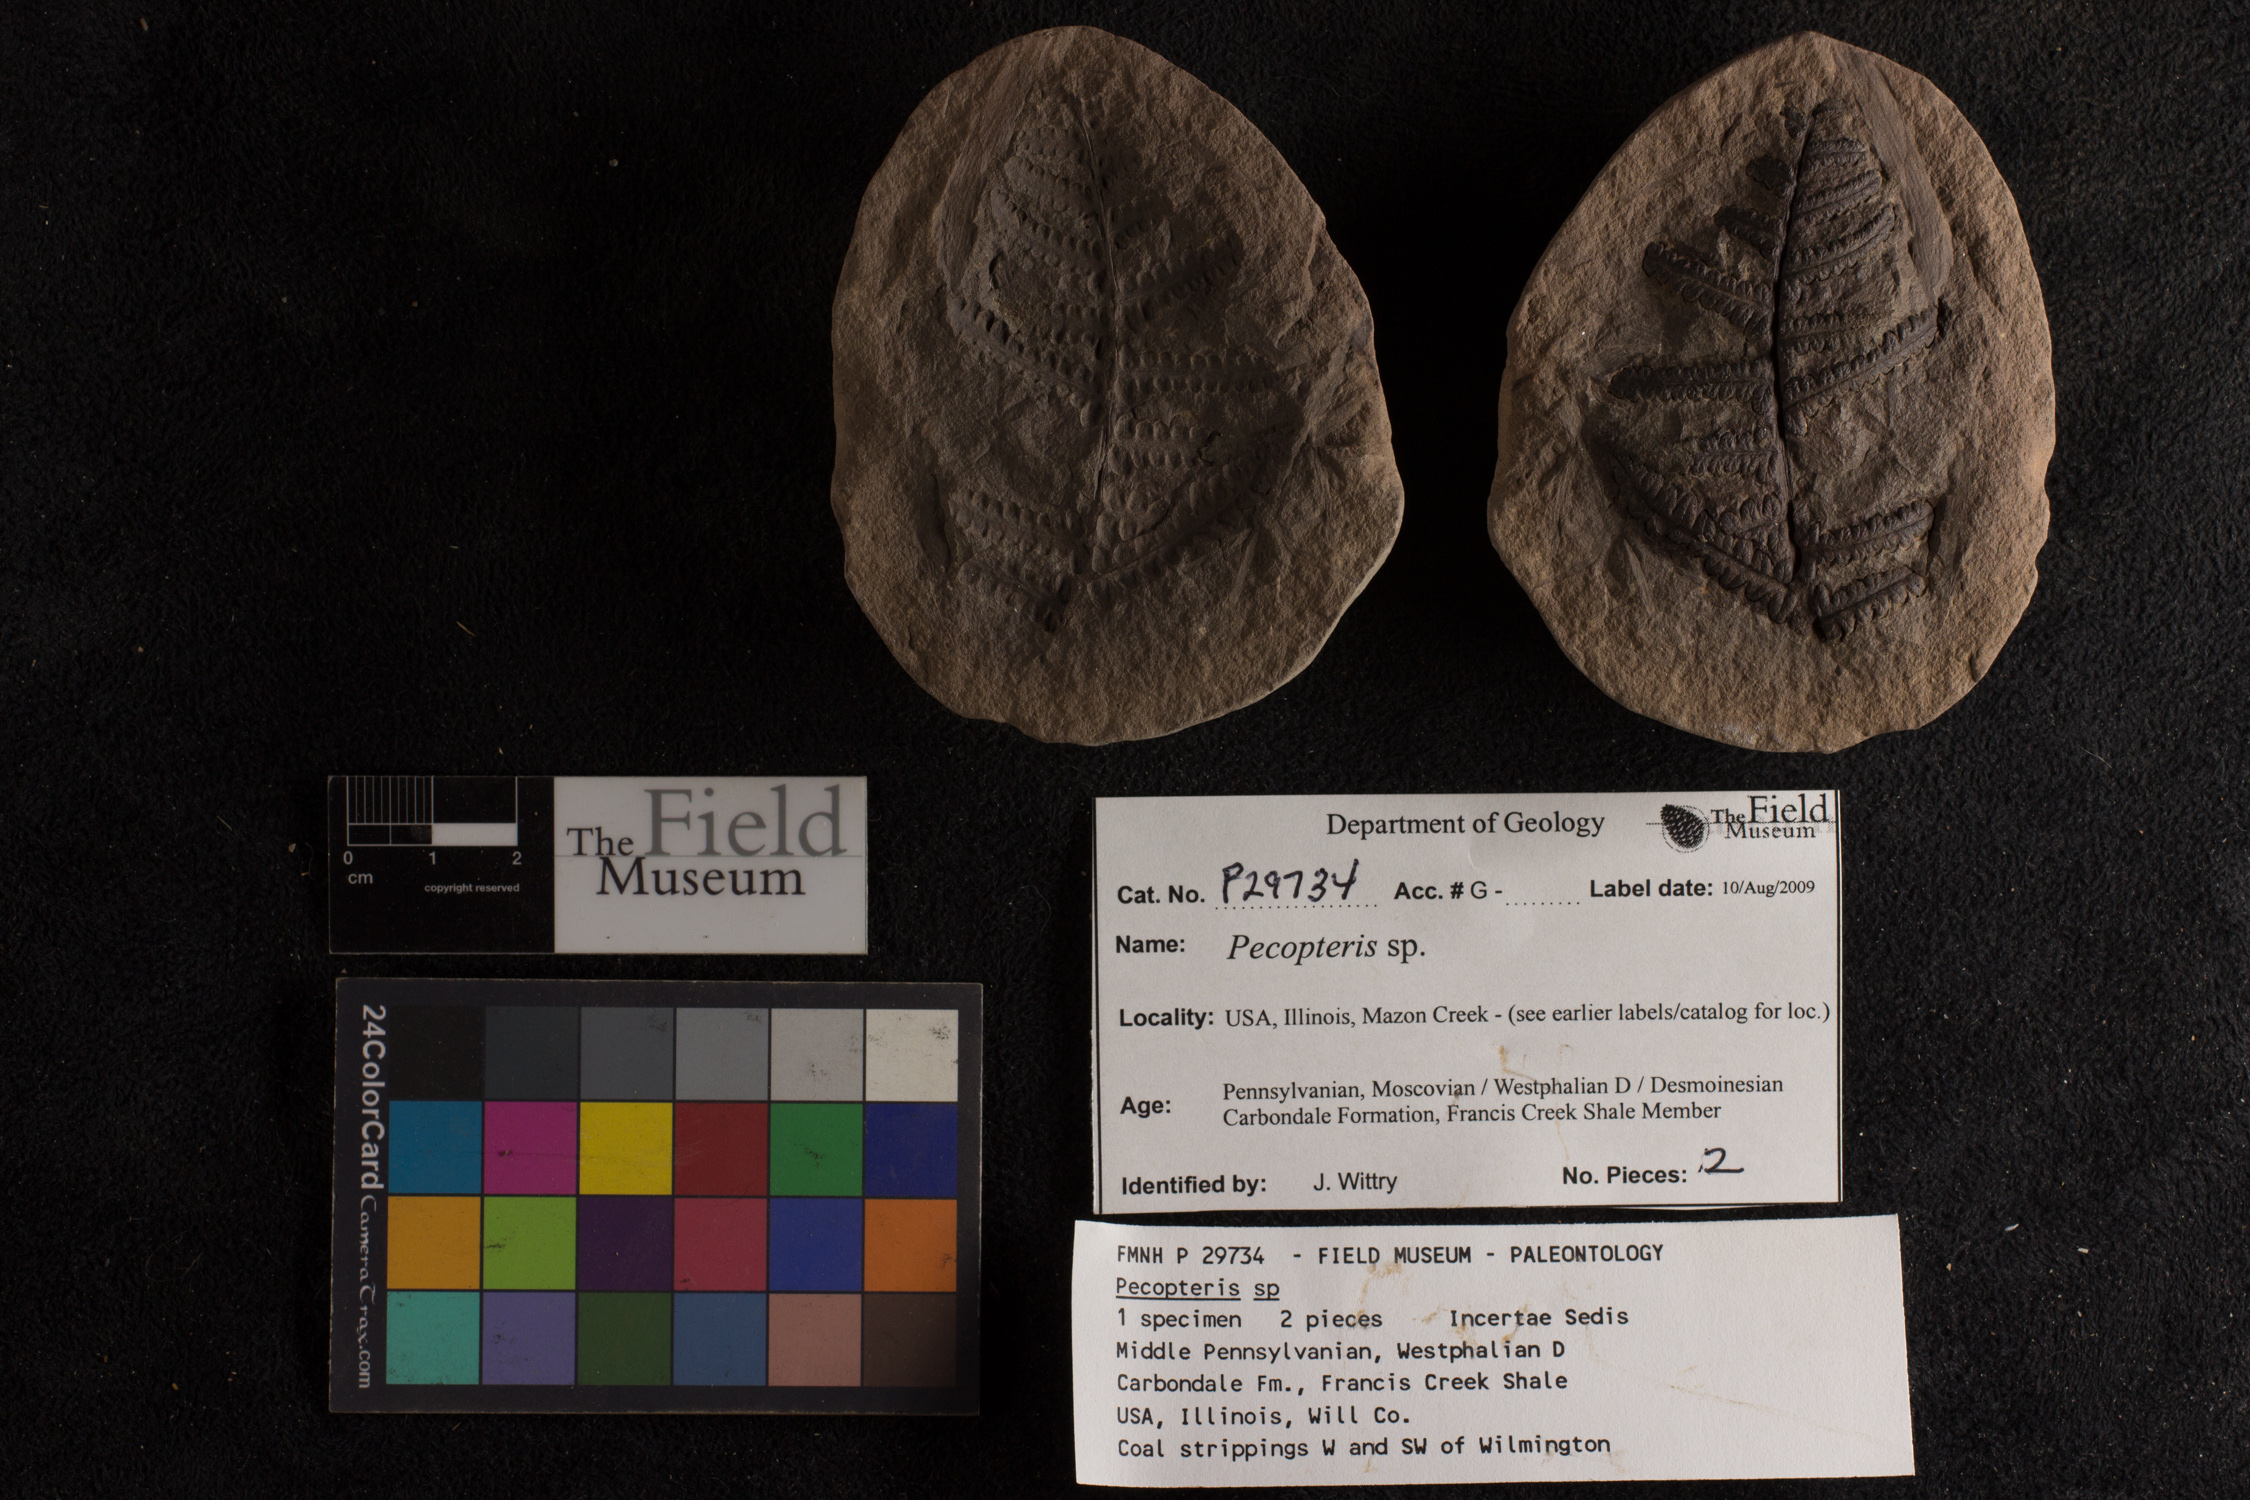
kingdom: Plantae
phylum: Tracheophyta
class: Polypodiopsida
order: Marattiales
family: Asterothecaceae
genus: Pecopteris
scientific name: Pecopteris
